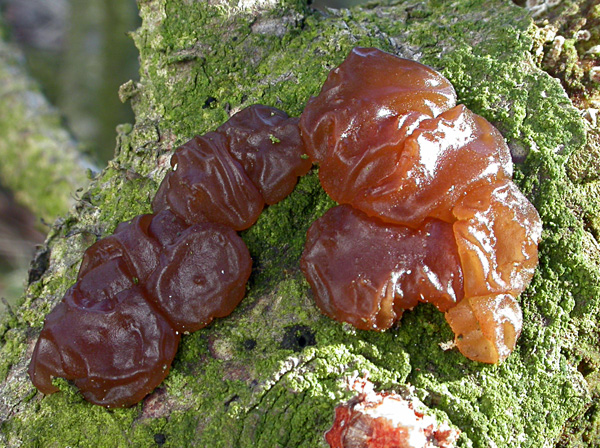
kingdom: Fungi
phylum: Basidiomycota
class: Agaricomycetes
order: Auriculariales
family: Auriculariaceae
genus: Exidia
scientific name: Exidia saccharina
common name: kandis-bævretop
